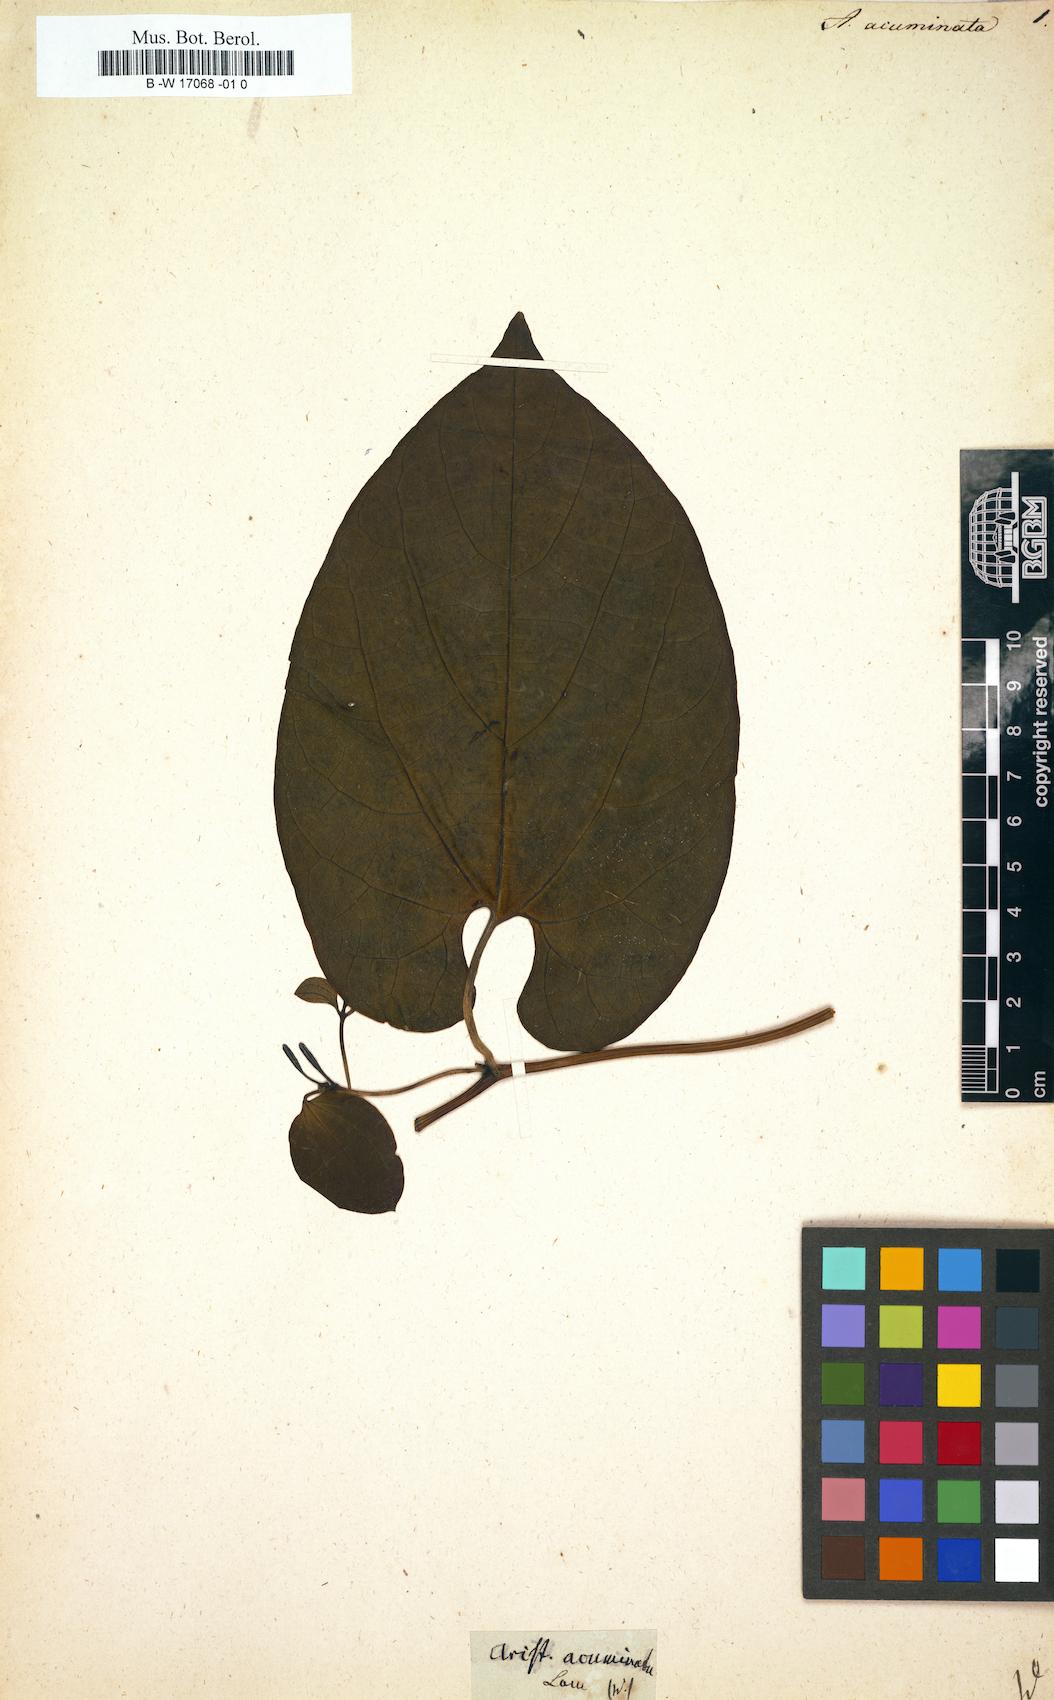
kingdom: Plantae
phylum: Tracheophyta
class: Magnoliopsida
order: Piperales
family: Aristolochiaceae
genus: Aristolochia
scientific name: Aristolochia acuminata
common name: Indian birthwort
